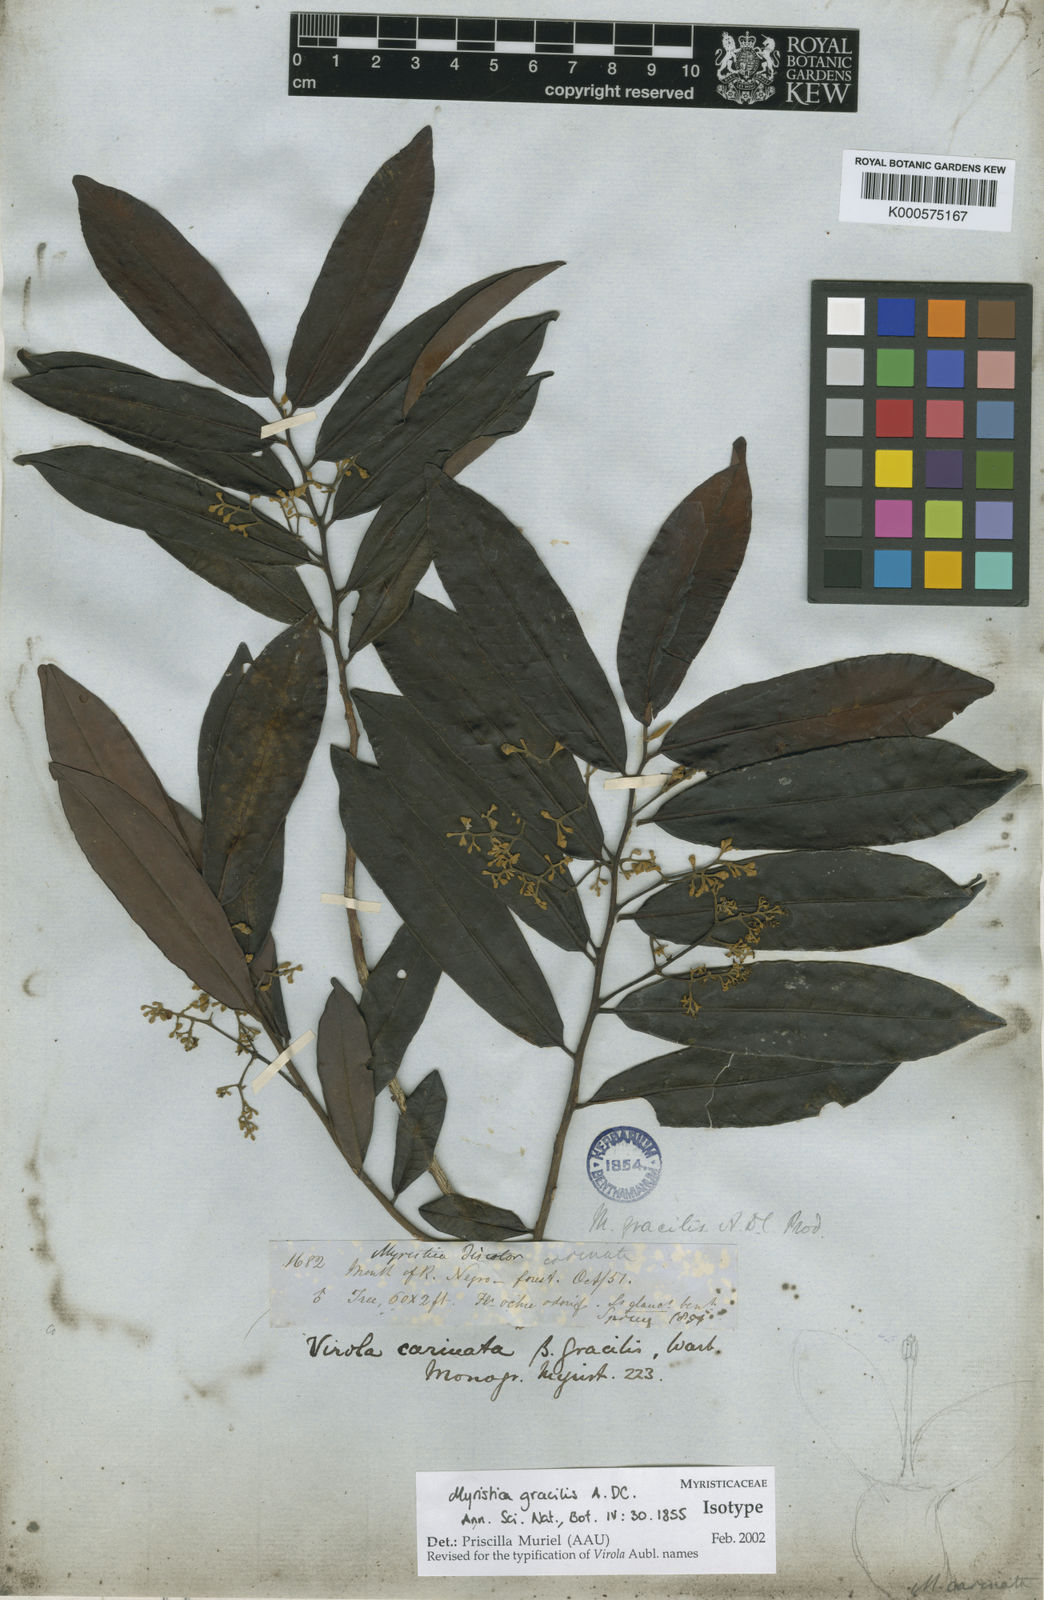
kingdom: Plantae
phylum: Tracheophyta
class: Magnoliopsida
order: Magnoliales
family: Myristicaceae
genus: Virola
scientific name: Virola carinata
